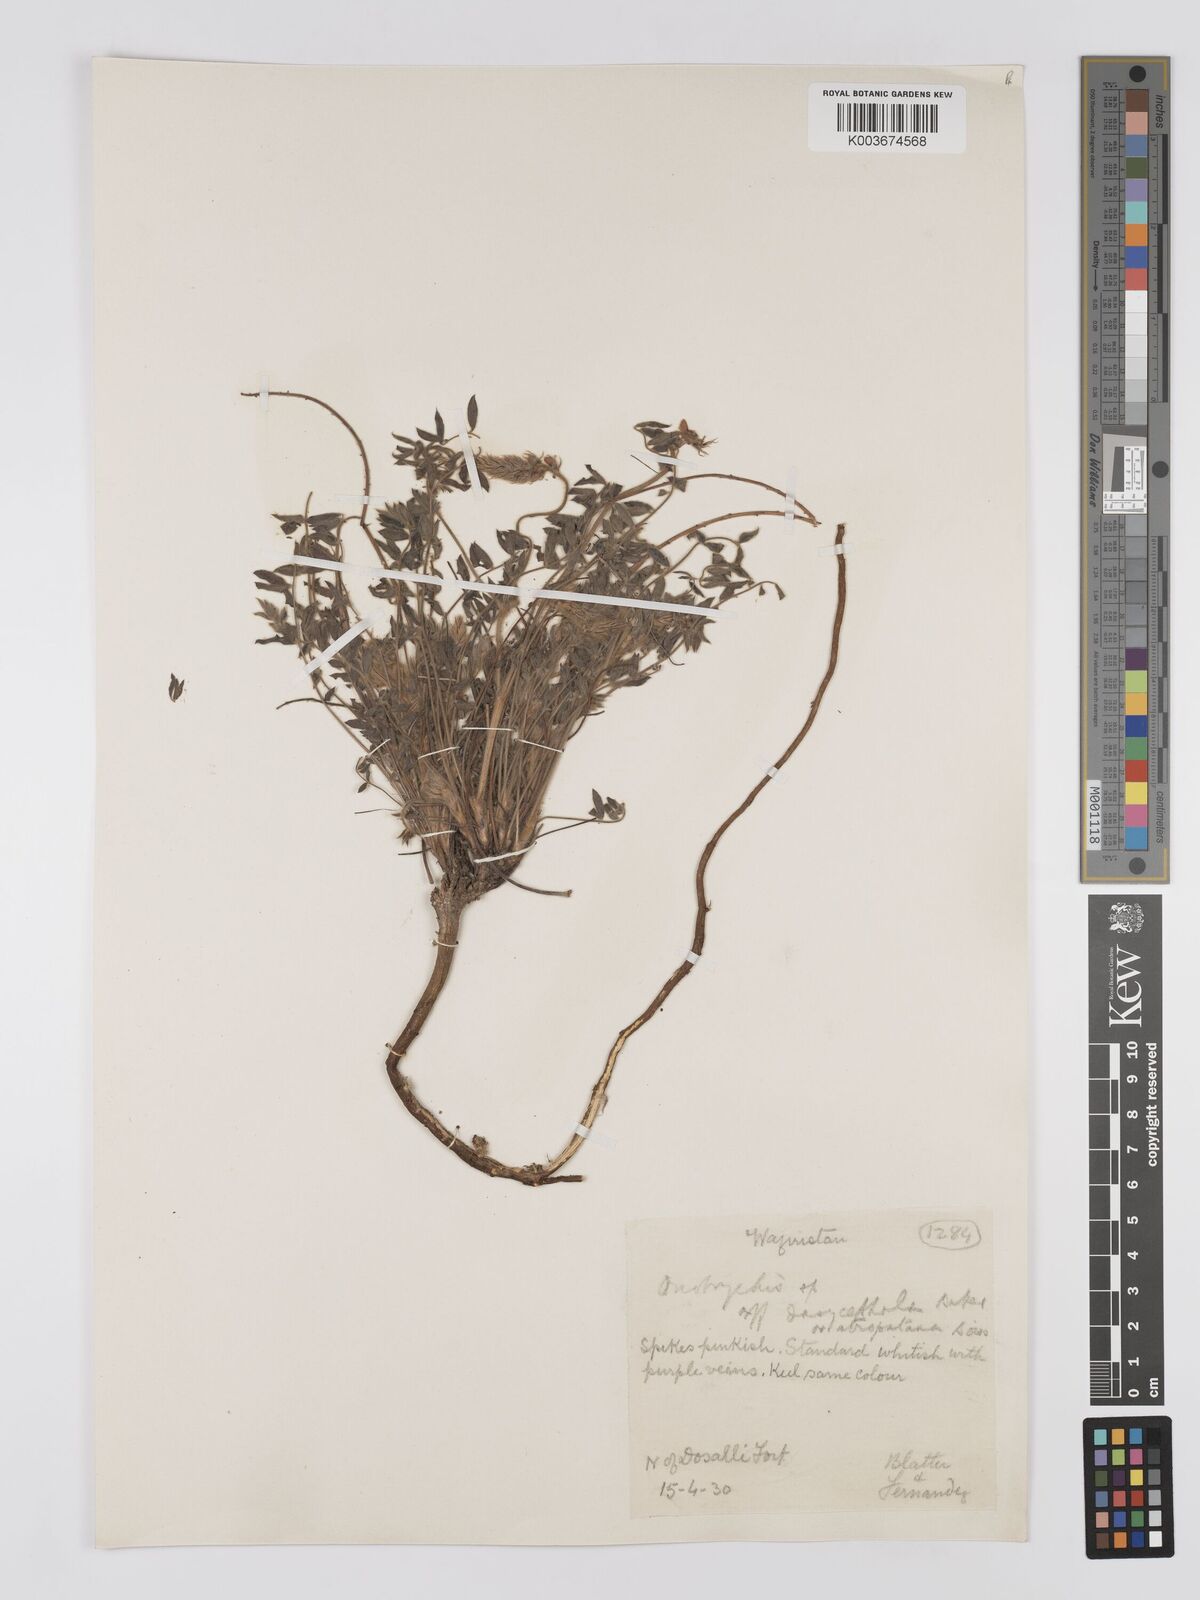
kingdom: Plantae
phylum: Tracheophyta
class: Magnoliopsida
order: Fabales
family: Fabaceae
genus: Onobrychis
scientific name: Onobrychis
